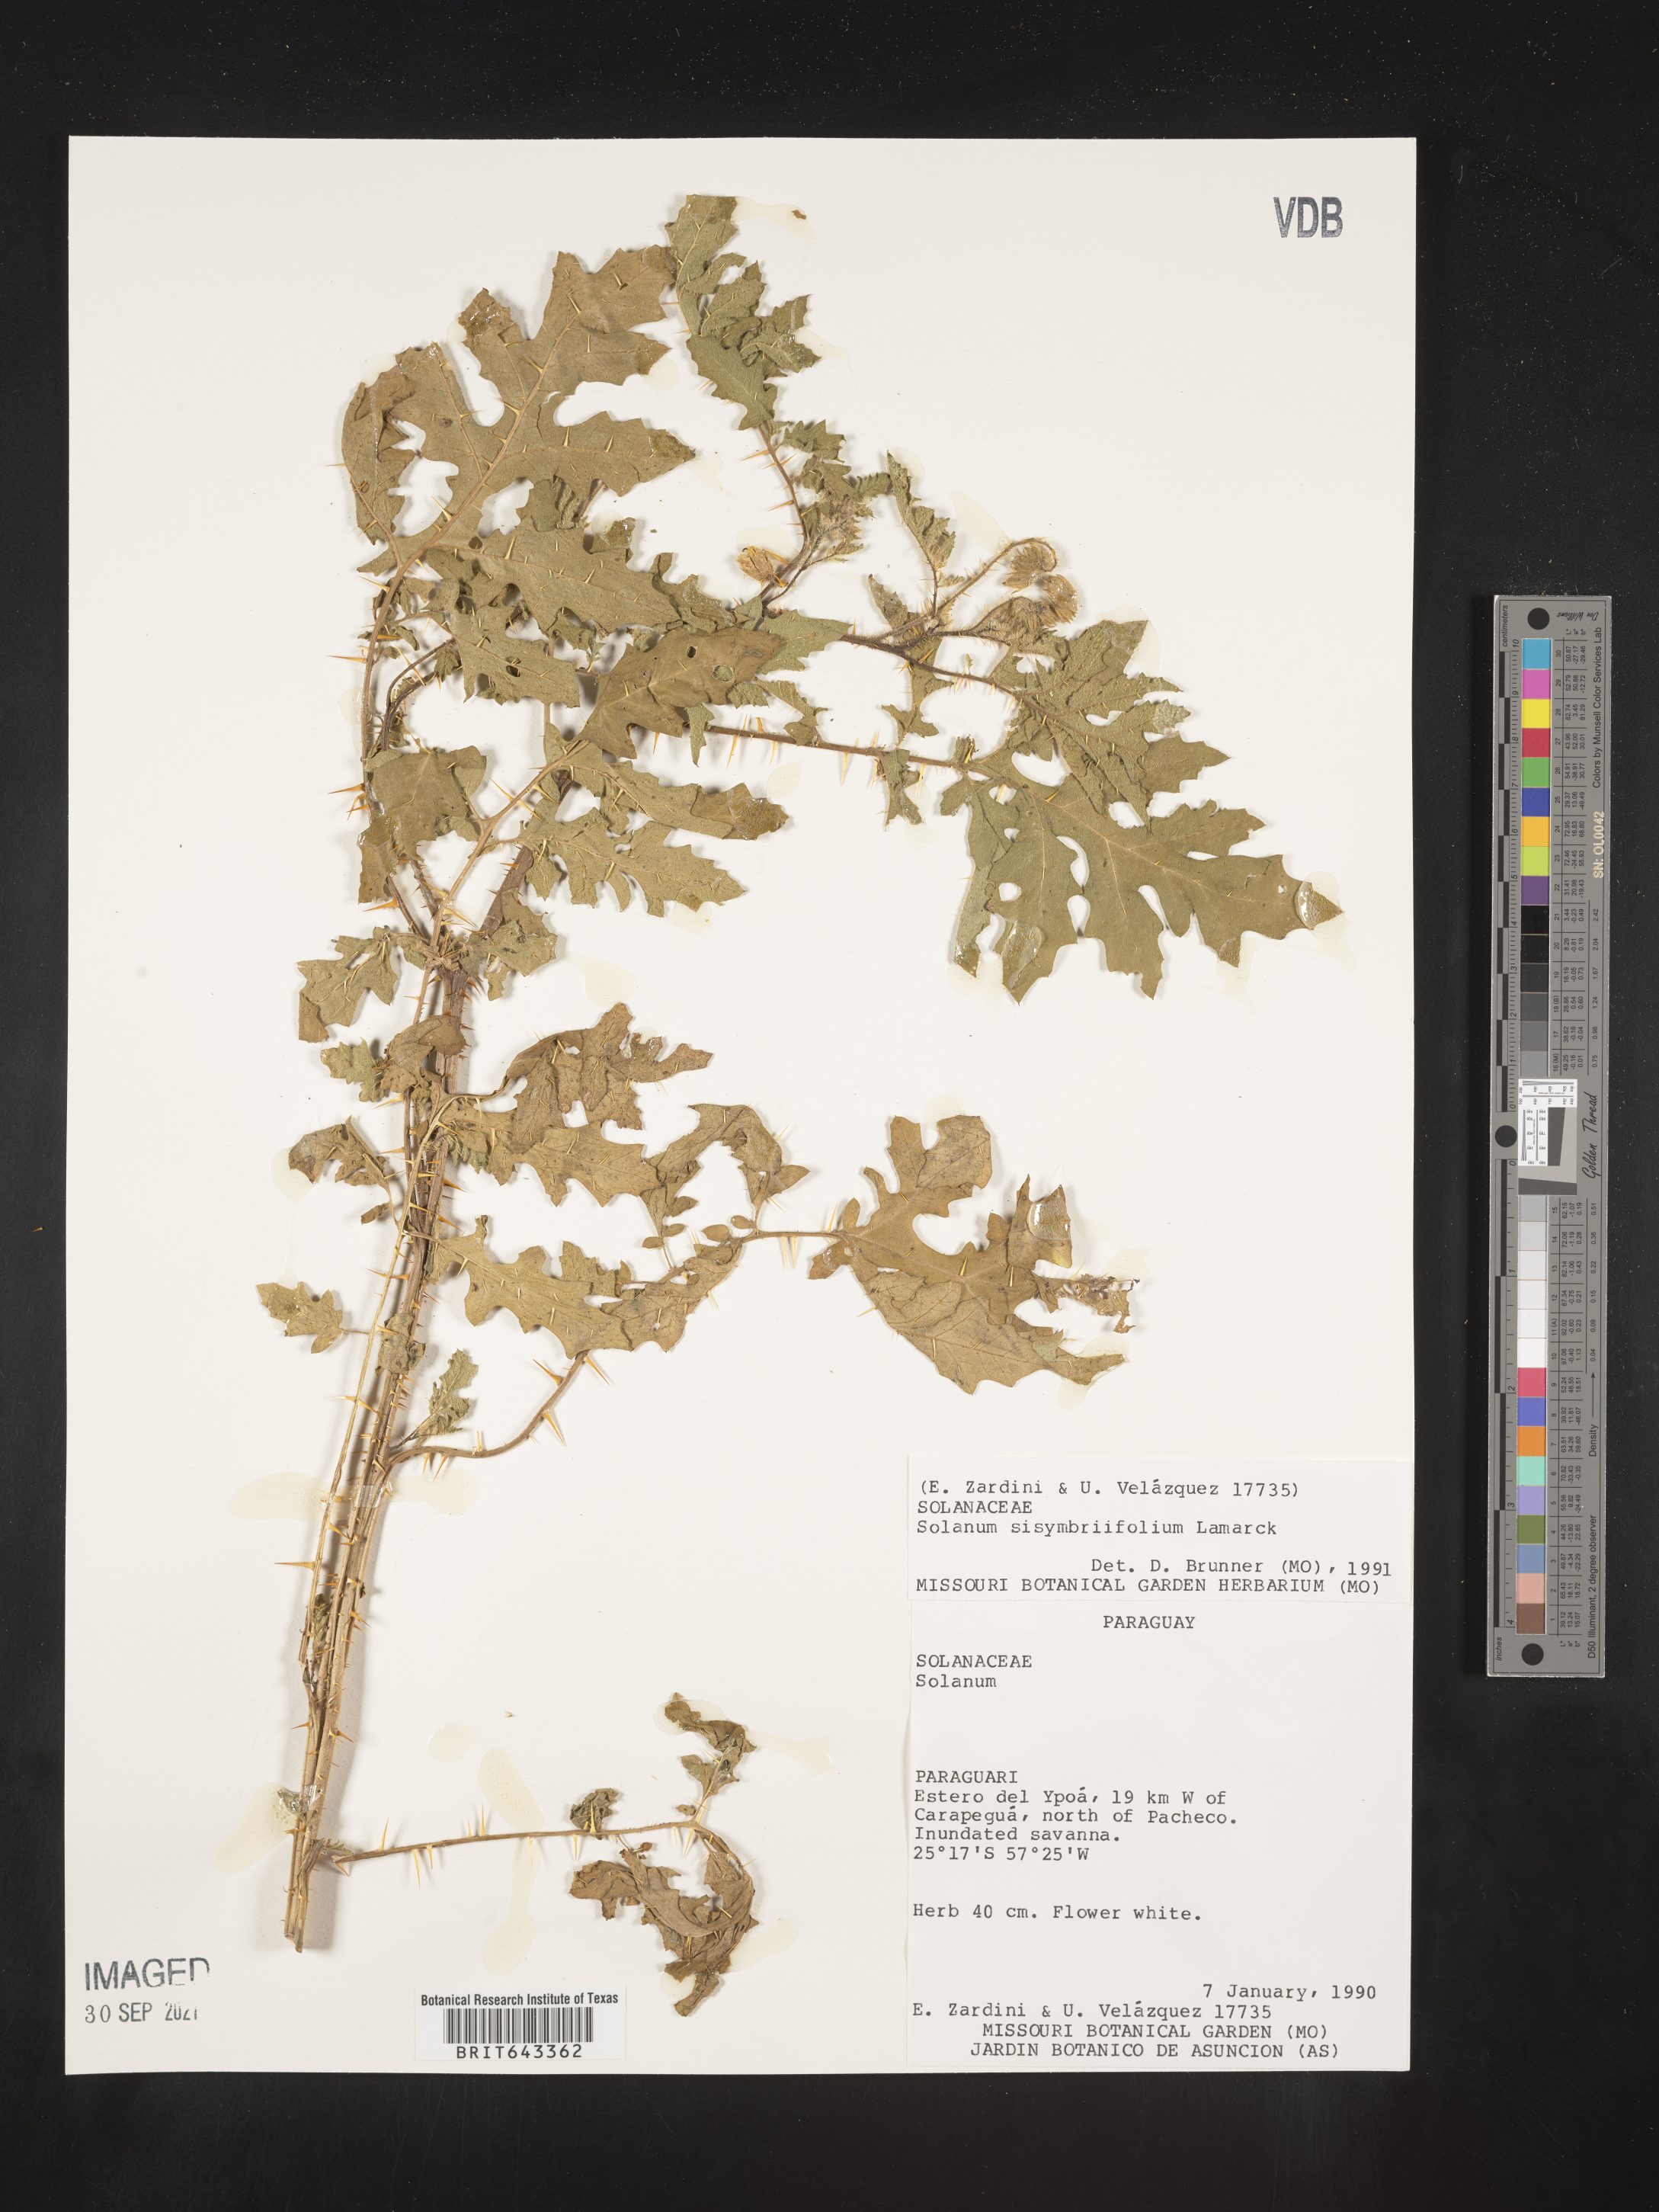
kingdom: Plantae
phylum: Tracheophyta
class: Magnoliopsida
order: Solanales
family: Solanaceae
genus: Solanum
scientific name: Solanum
